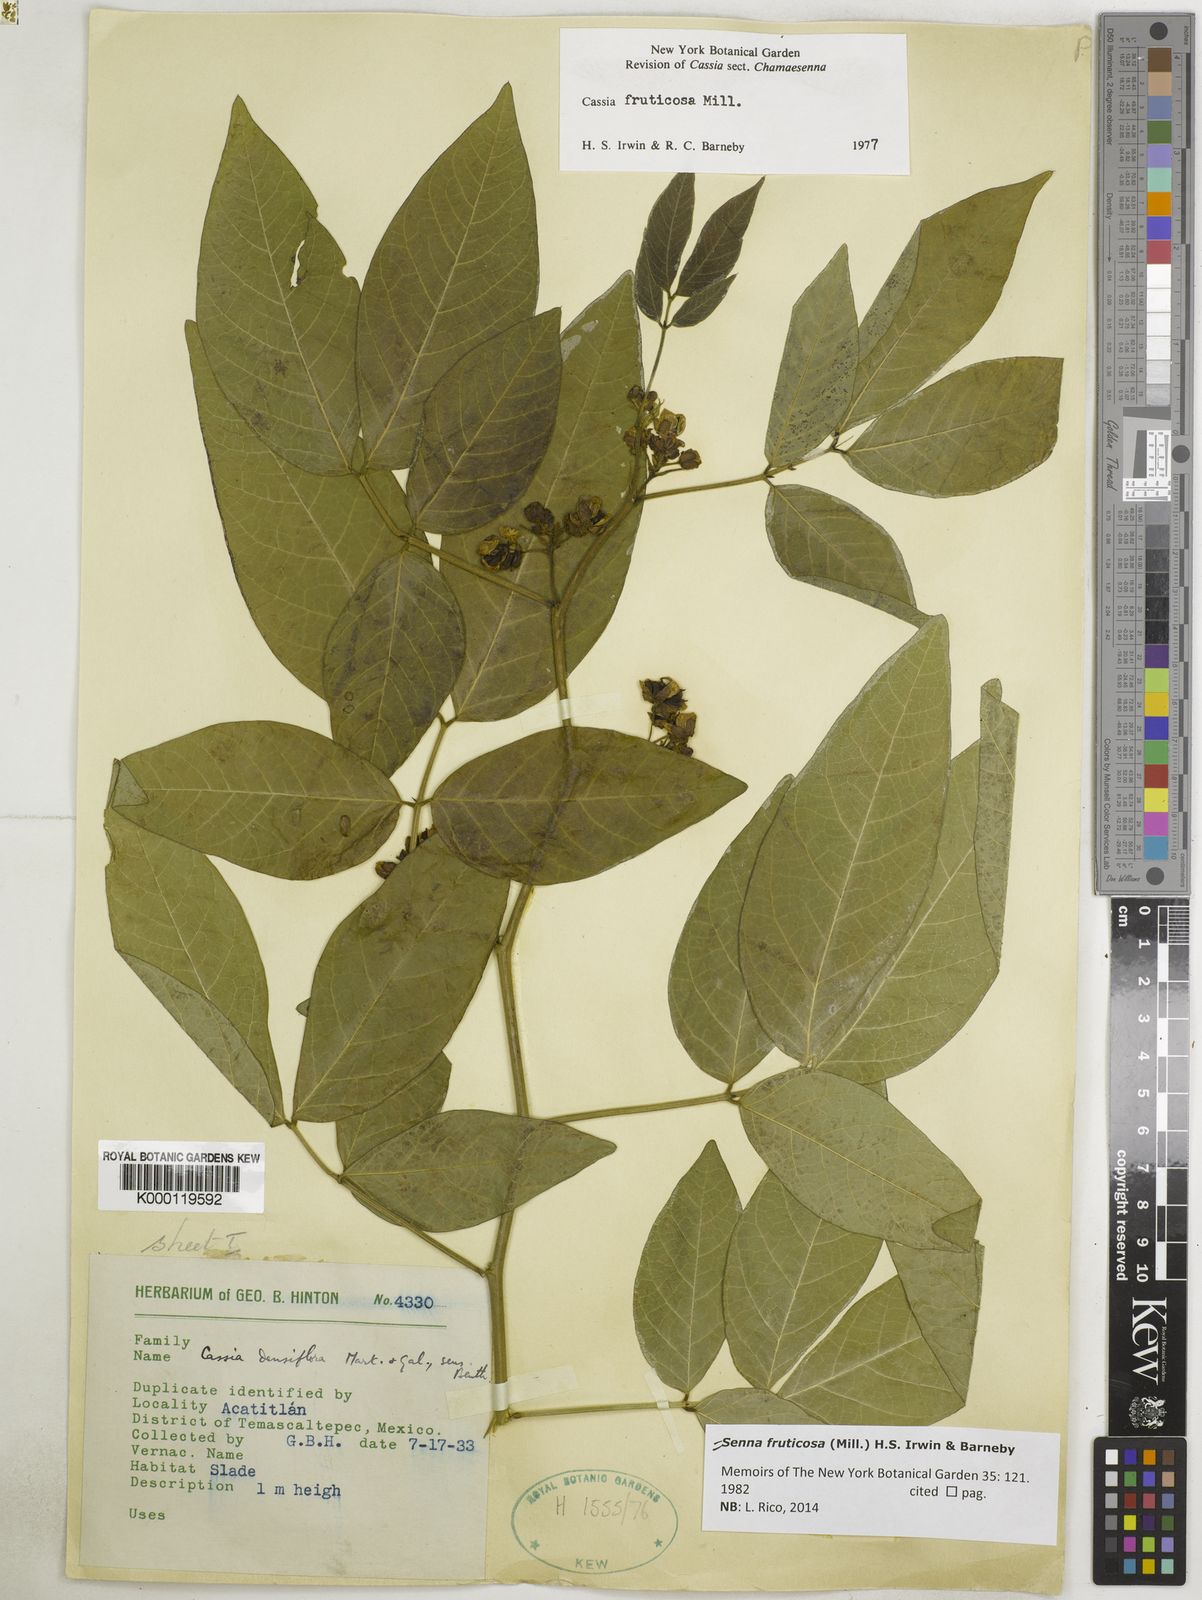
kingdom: Plantae
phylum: Tracheophyta
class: Magnoliopsida
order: Fabales
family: Fabaceae
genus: Senna
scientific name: Senna fruticosa
